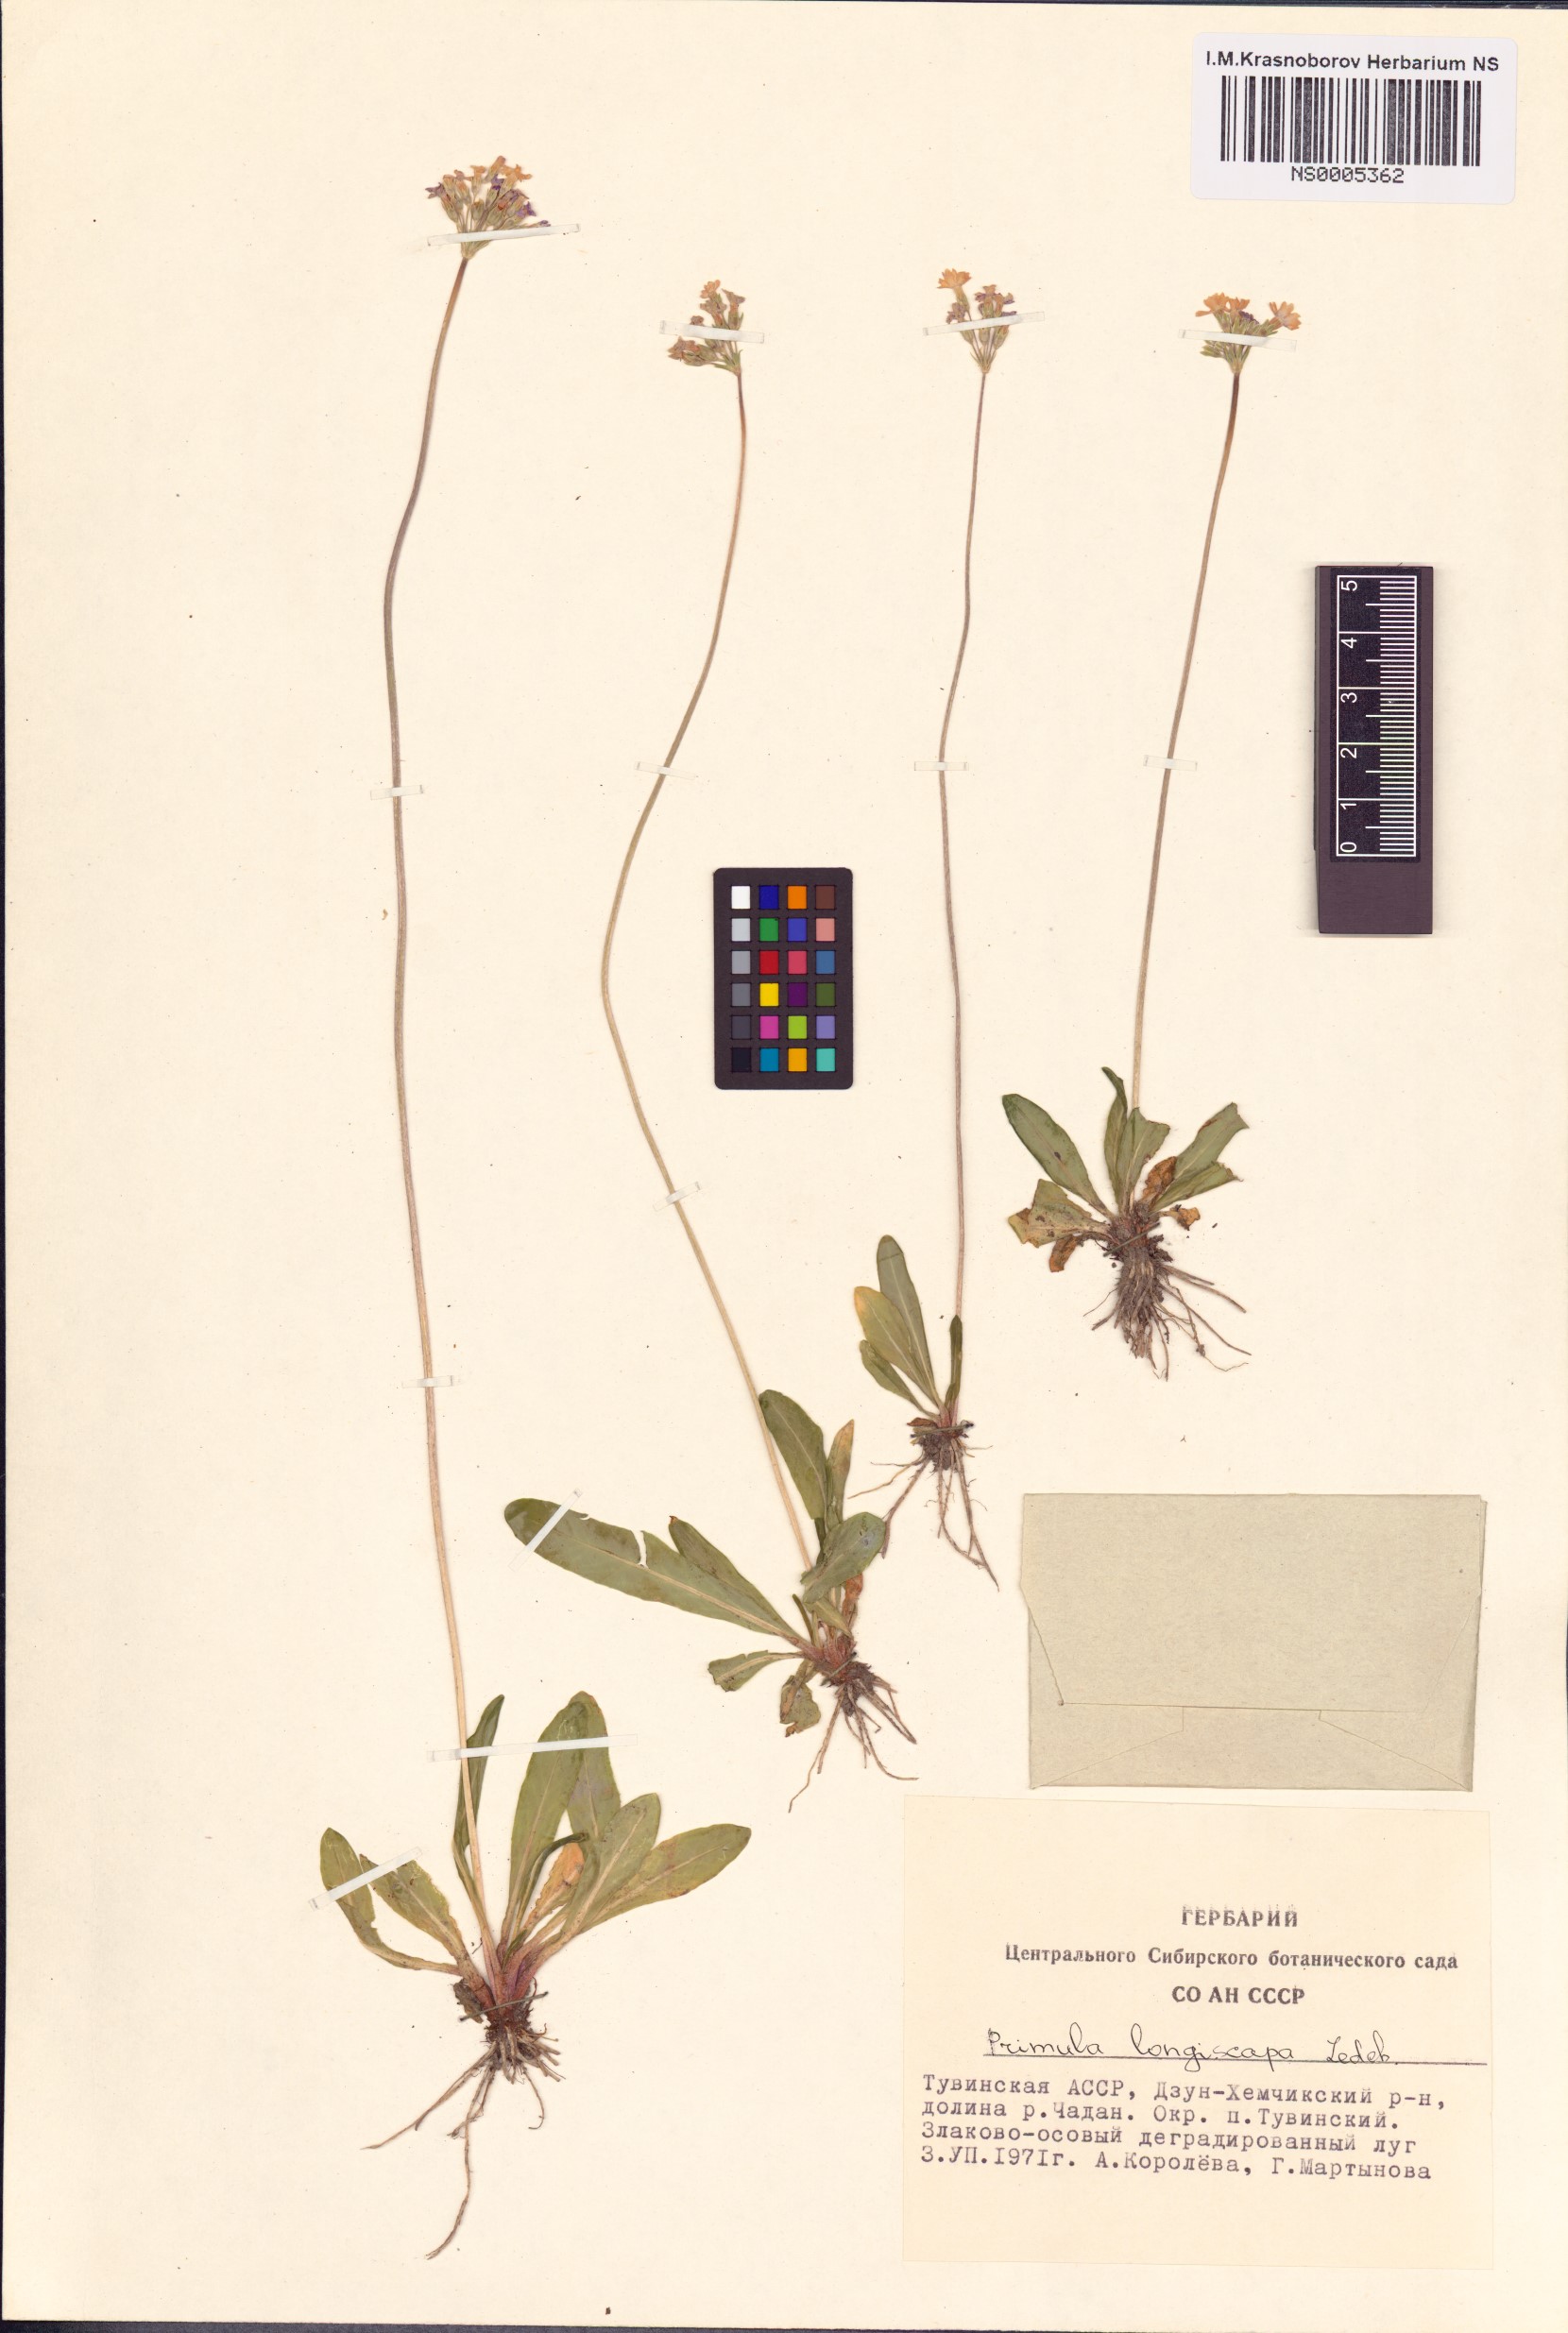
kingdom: Plantae
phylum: Tracheophyta
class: Magnoliopsida
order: Ericales
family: Primulaceae
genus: Primula
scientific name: Primula longiscapa
